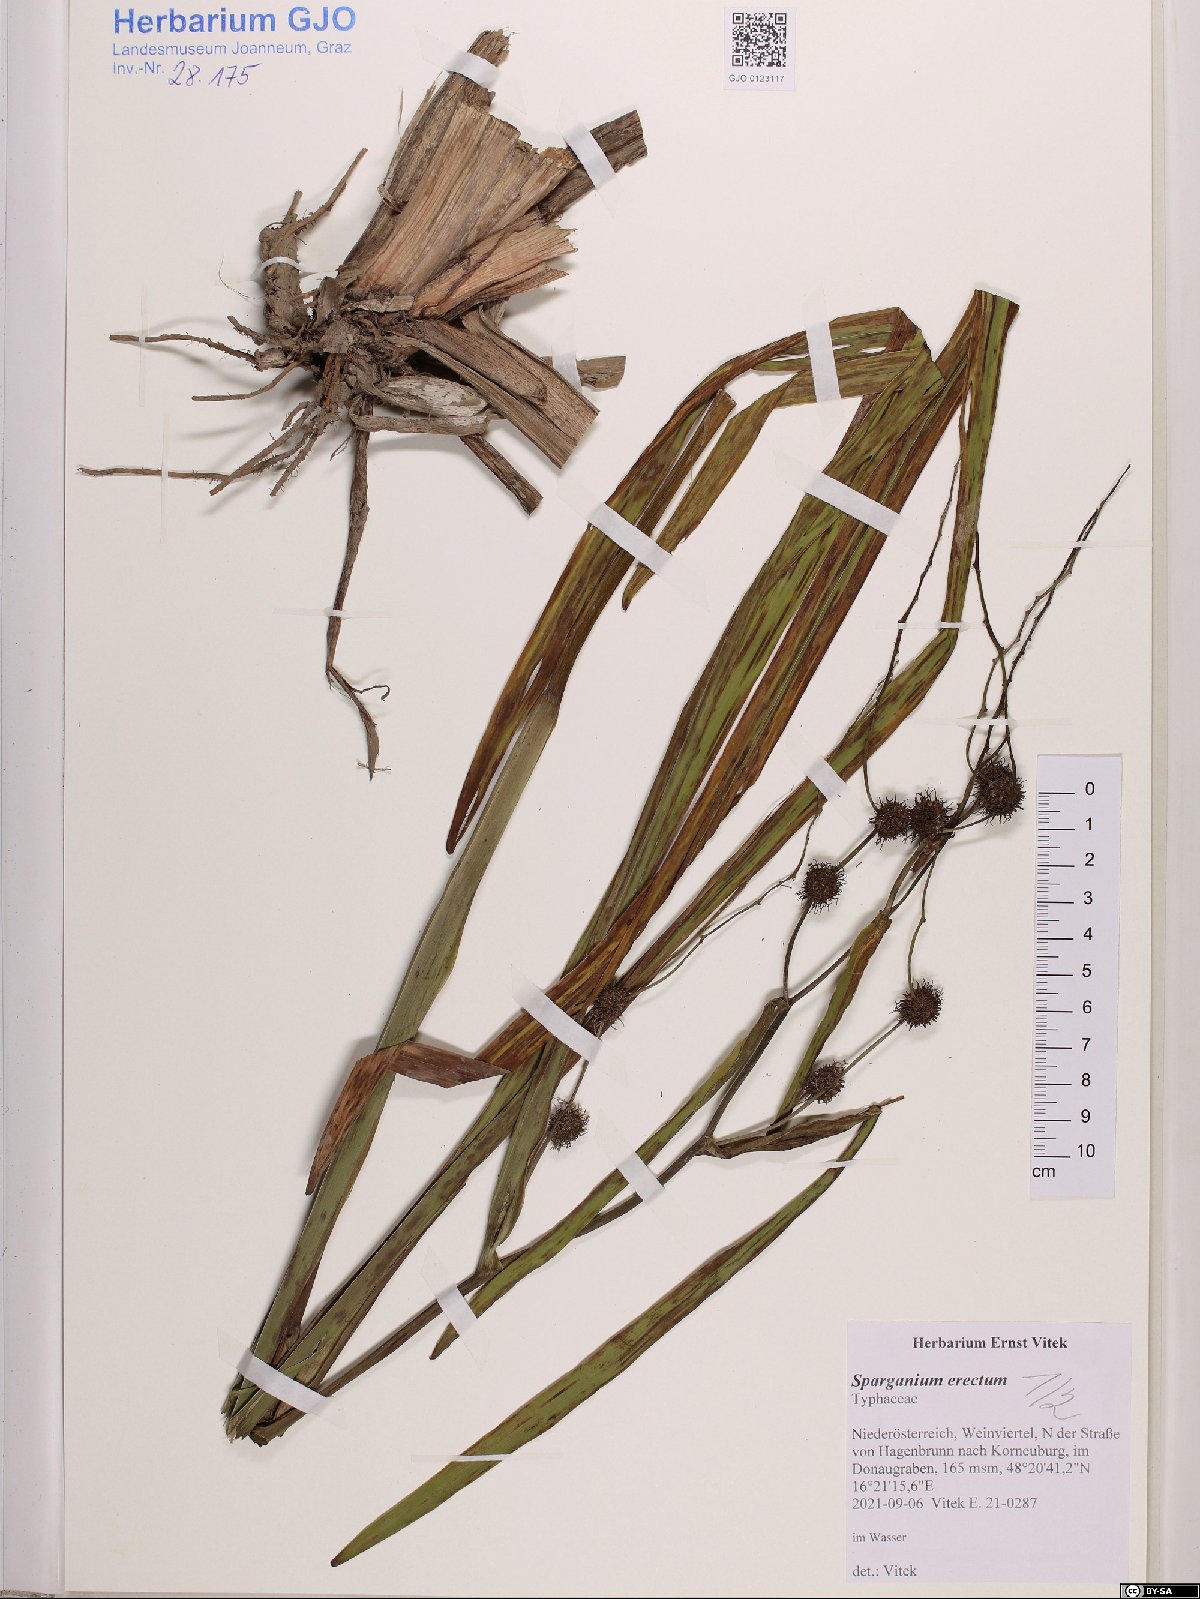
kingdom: Plantae
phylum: Tracheophyta
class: Liliopsida
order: Poales
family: Typhaceae
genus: Sparganium
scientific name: Sparganium erectum
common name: Branched bur-reed
